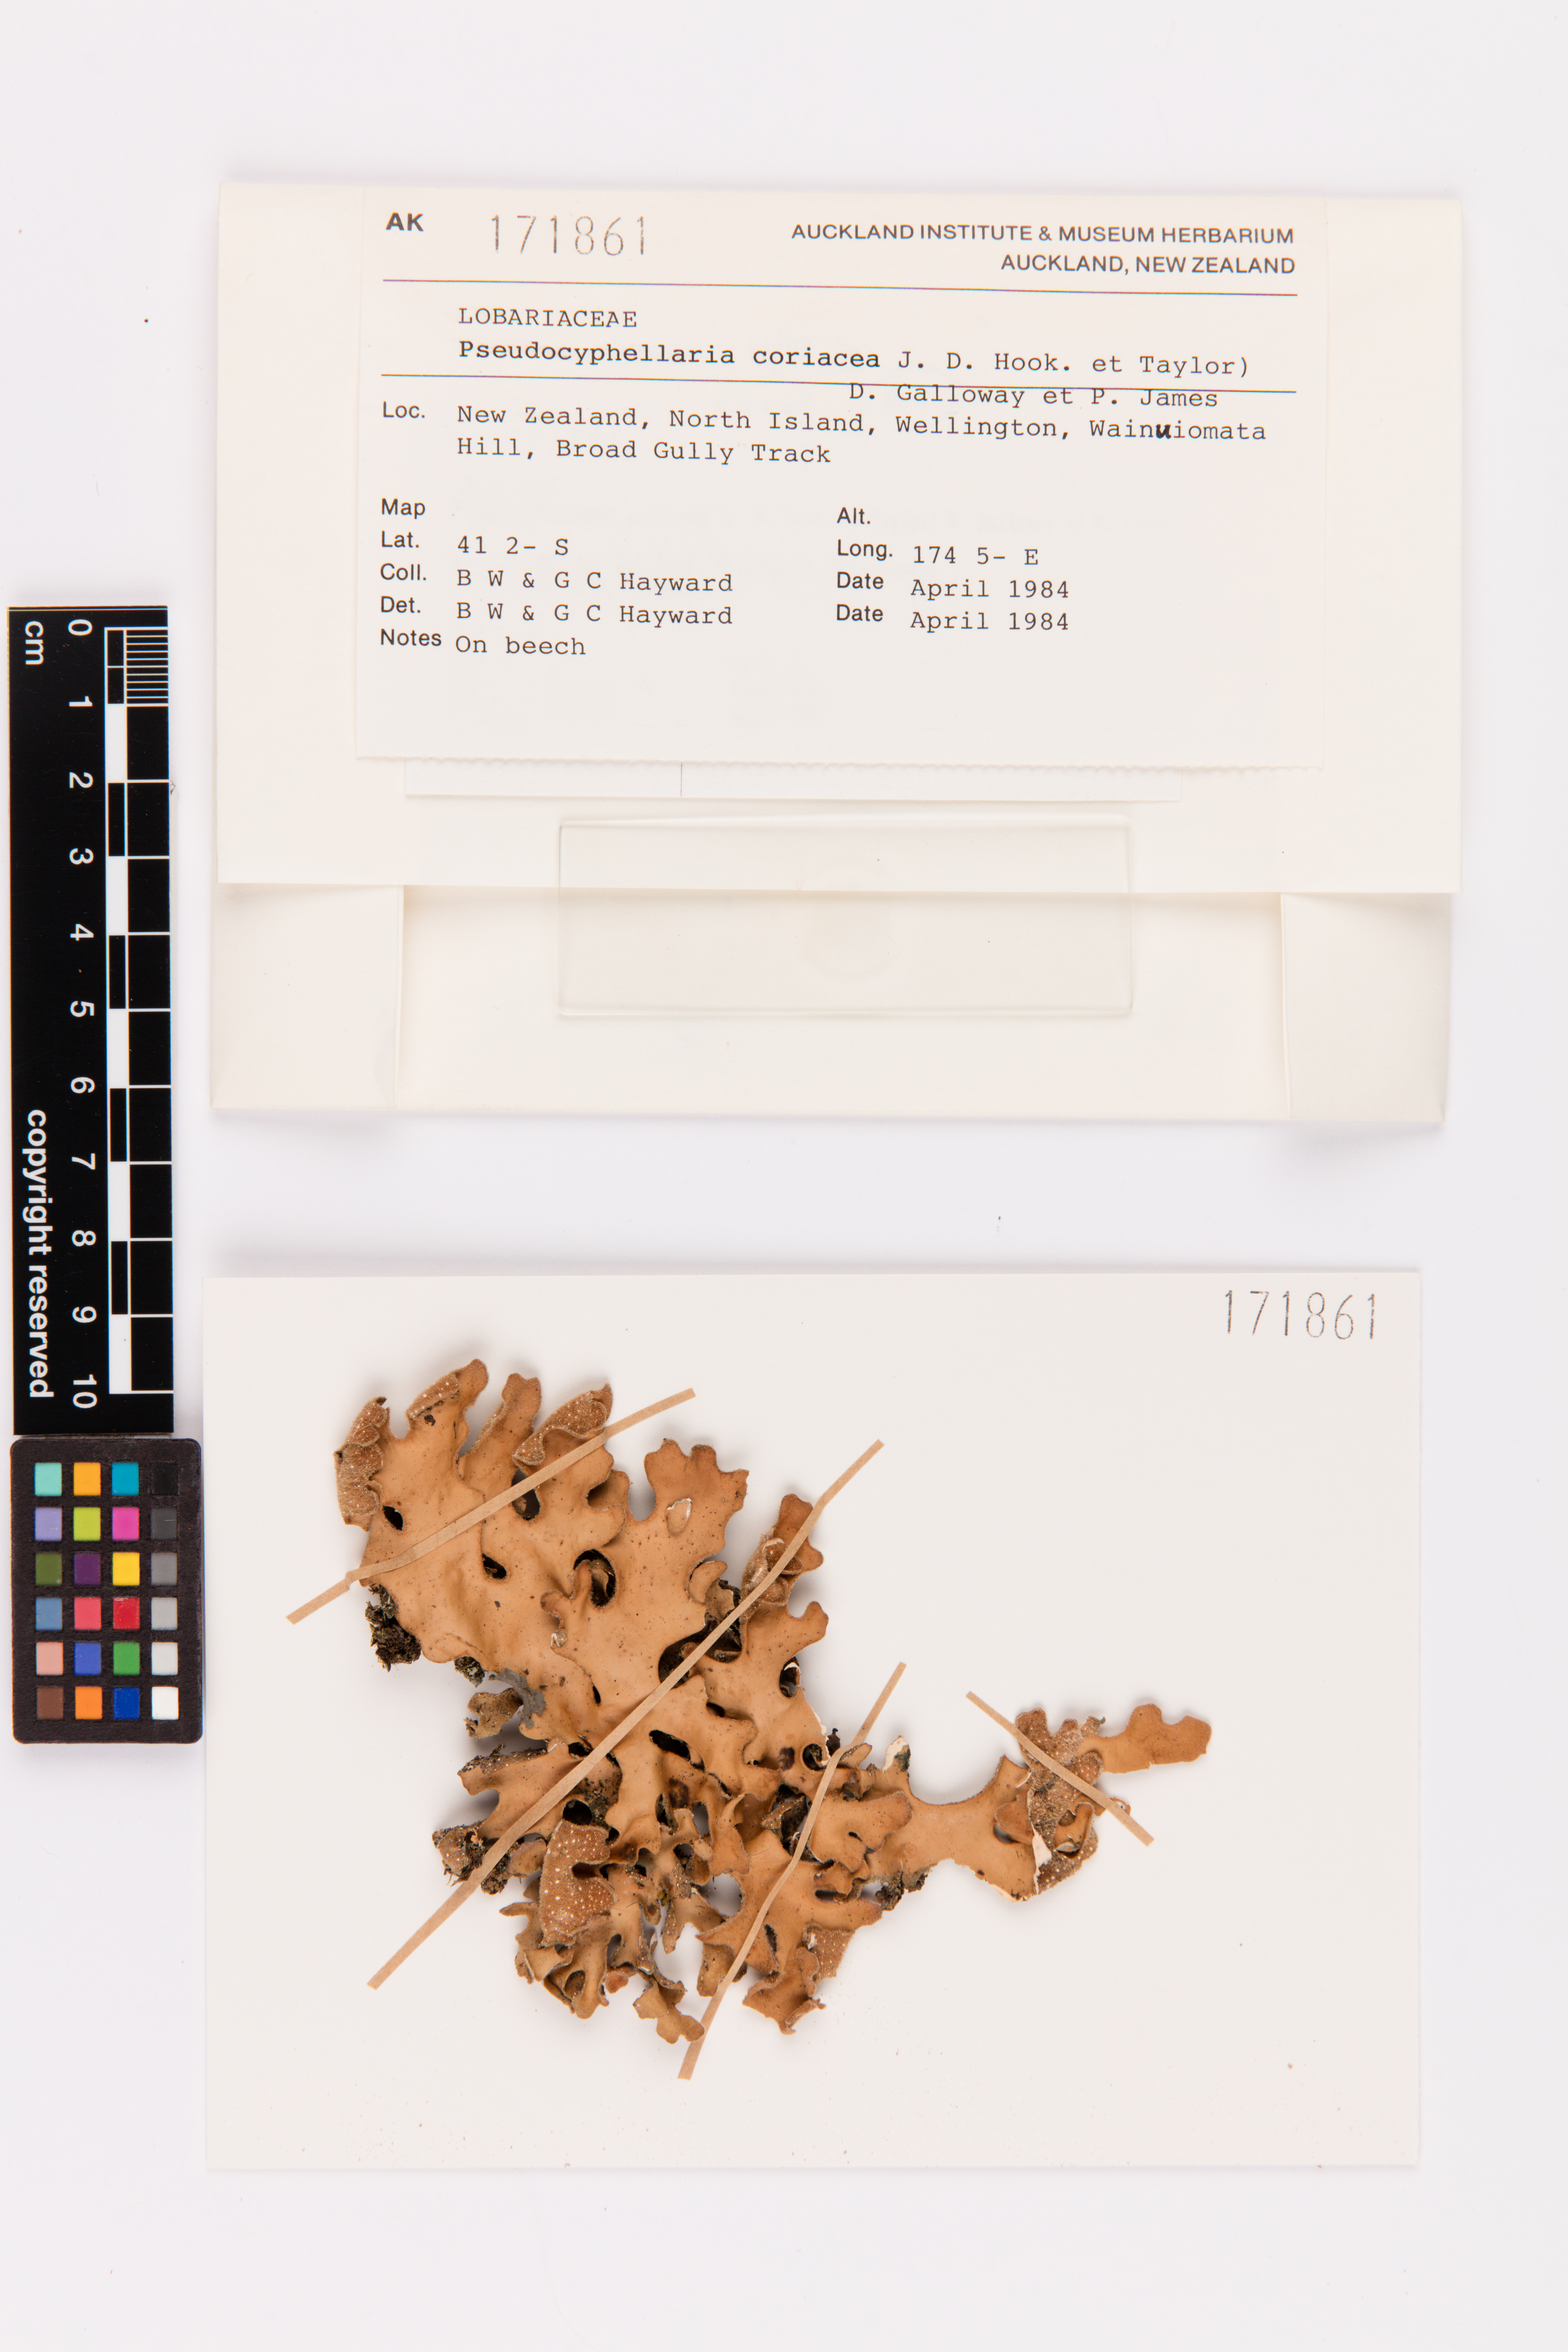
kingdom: Fungi
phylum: Ascomycota
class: Lecanoromycetes
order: Peltigerales
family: Lobariaceae
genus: Pseudocyphellaria
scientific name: Pseudocyphellaria coriacea
